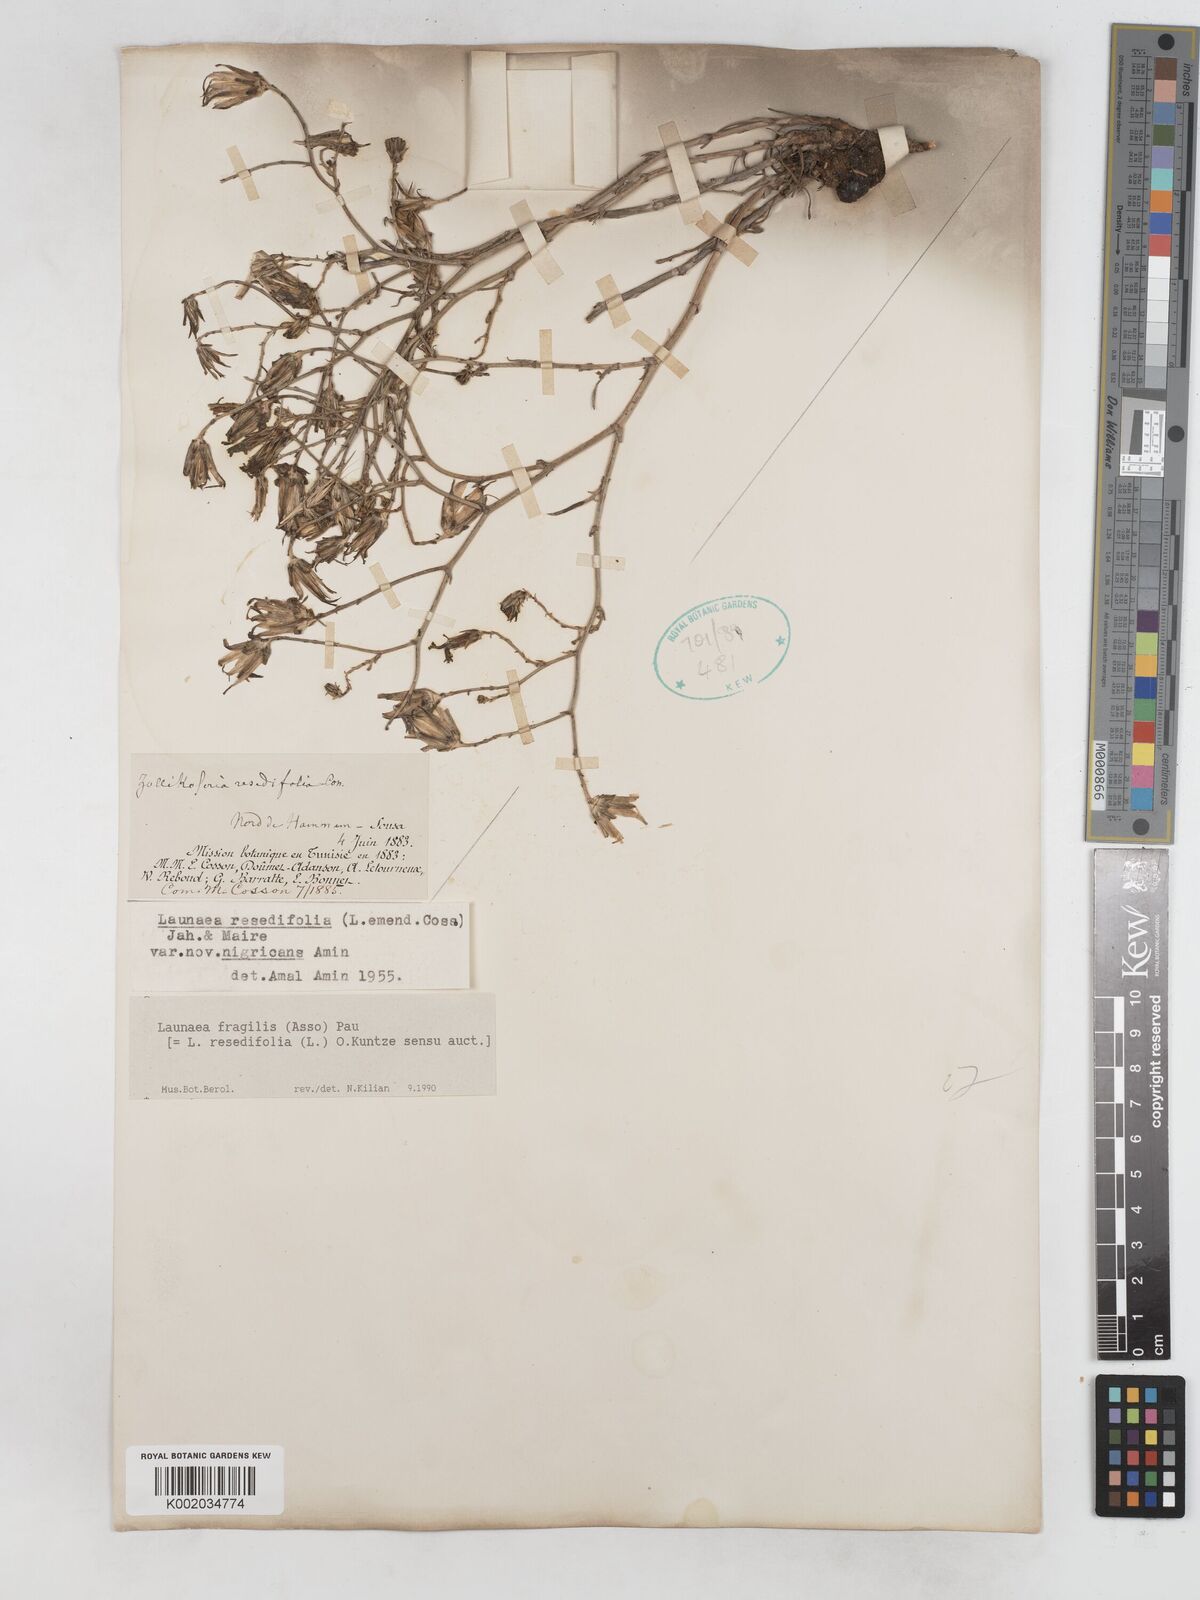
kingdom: Plantae
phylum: Tracheophyta
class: Magnoliopsida
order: Asterales
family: Asteraceae
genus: Launaea
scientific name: Launaea fragilis
